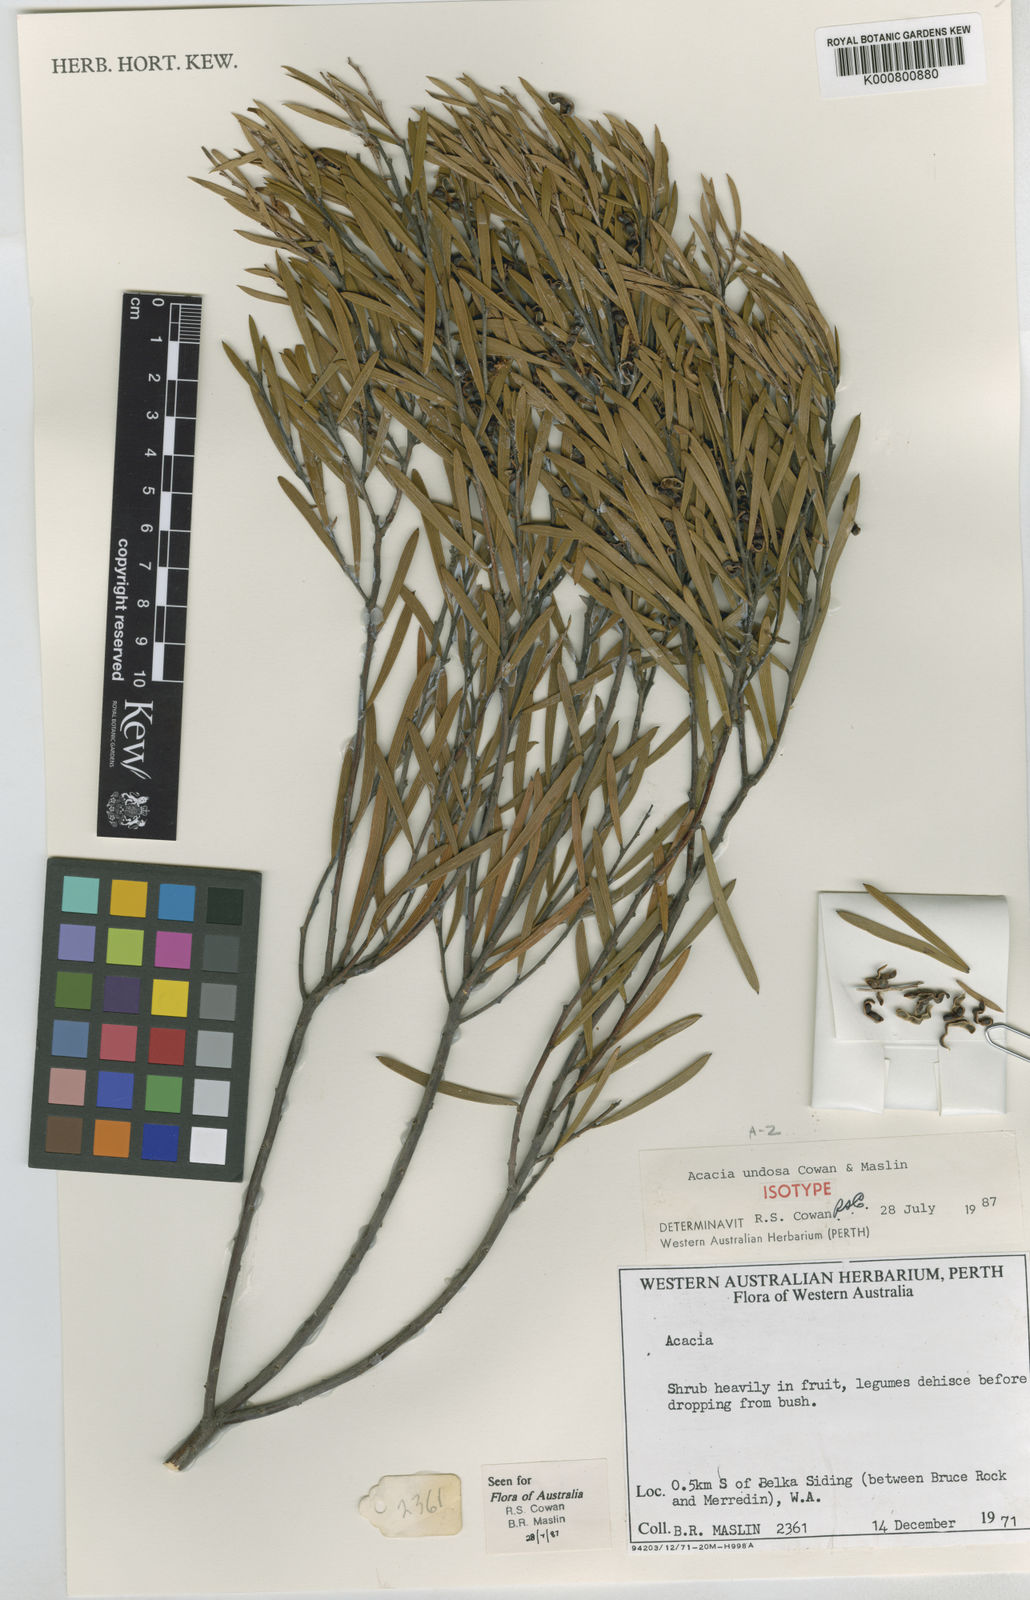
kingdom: Plantae
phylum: Tracheophyta
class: Magnoliopsida
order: Fabales
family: Fabaceae
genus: Acacia
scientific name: Acacia undosa
